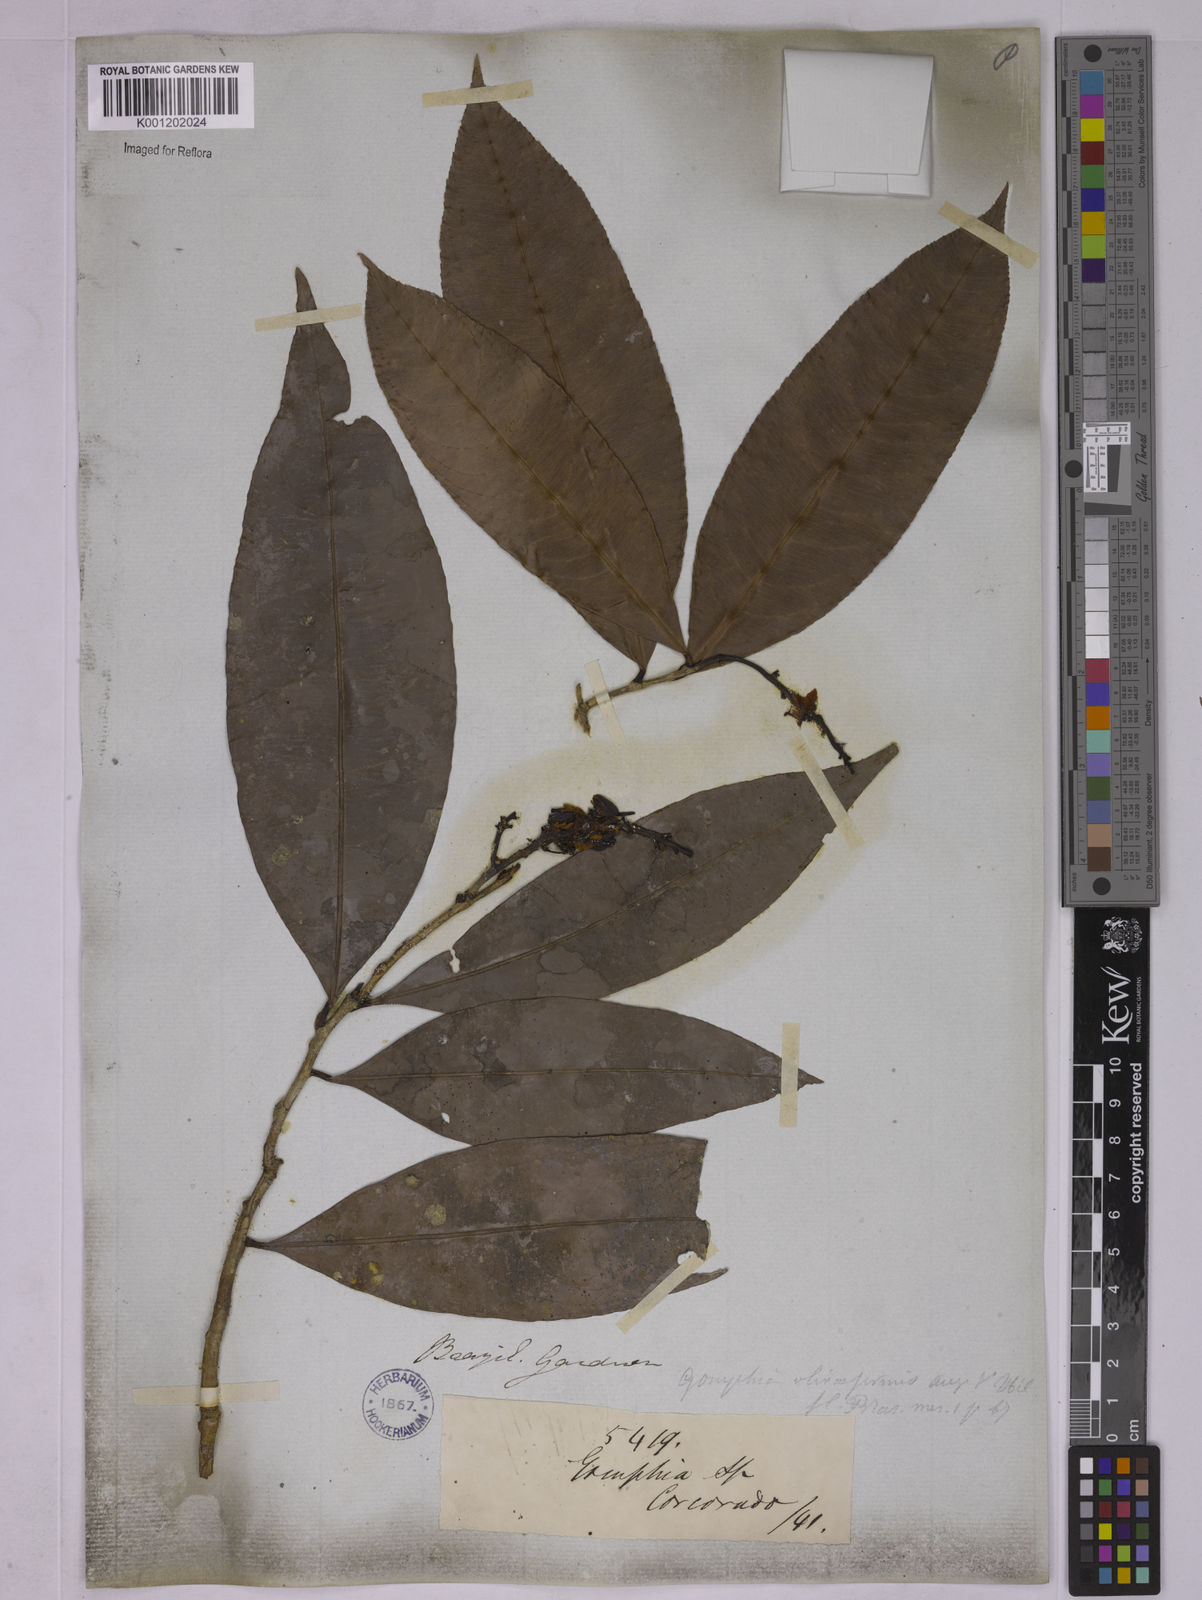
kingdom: Plantae
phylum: Tracheophyta
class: Magnoliopsida
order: Malpighiales
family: Ochnaceae
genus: Ouratea
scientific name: Ouratea oliviformis
